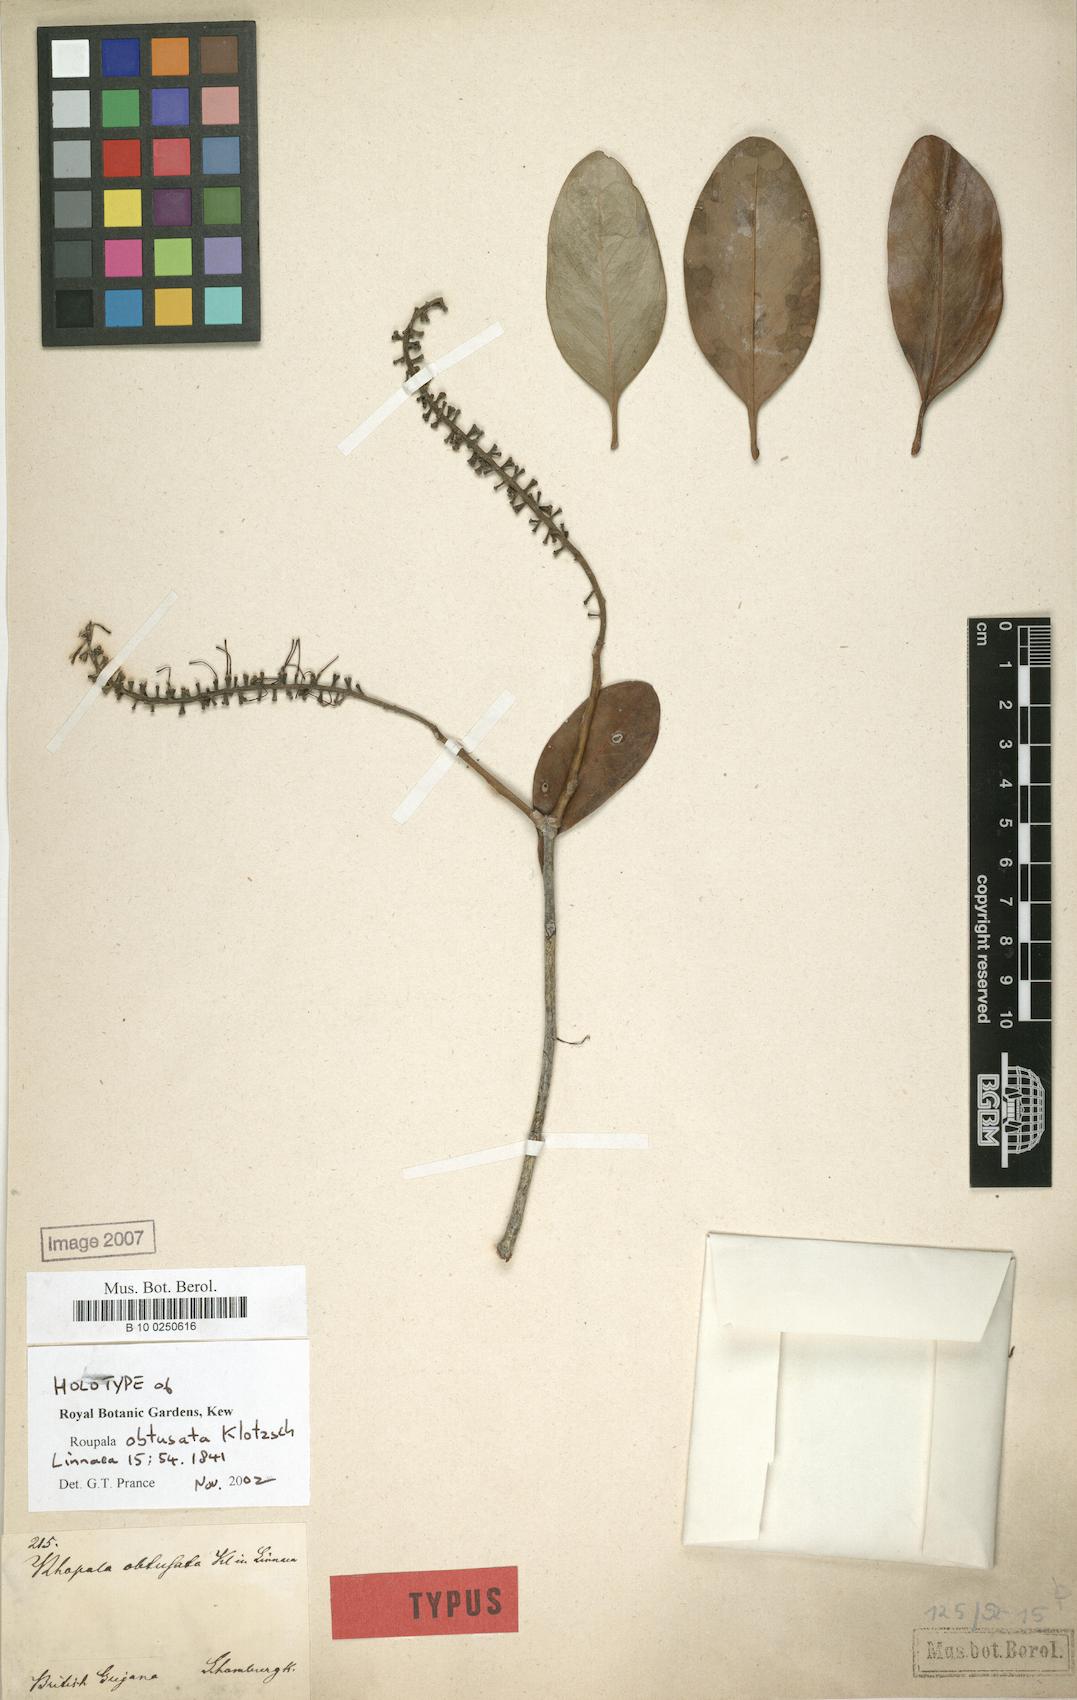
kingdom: Plantae
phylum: Tracheophyta
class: Magnoliopsida
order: Proteales
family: Proteaceae
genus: Roupala
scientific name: Roupala obtusata
